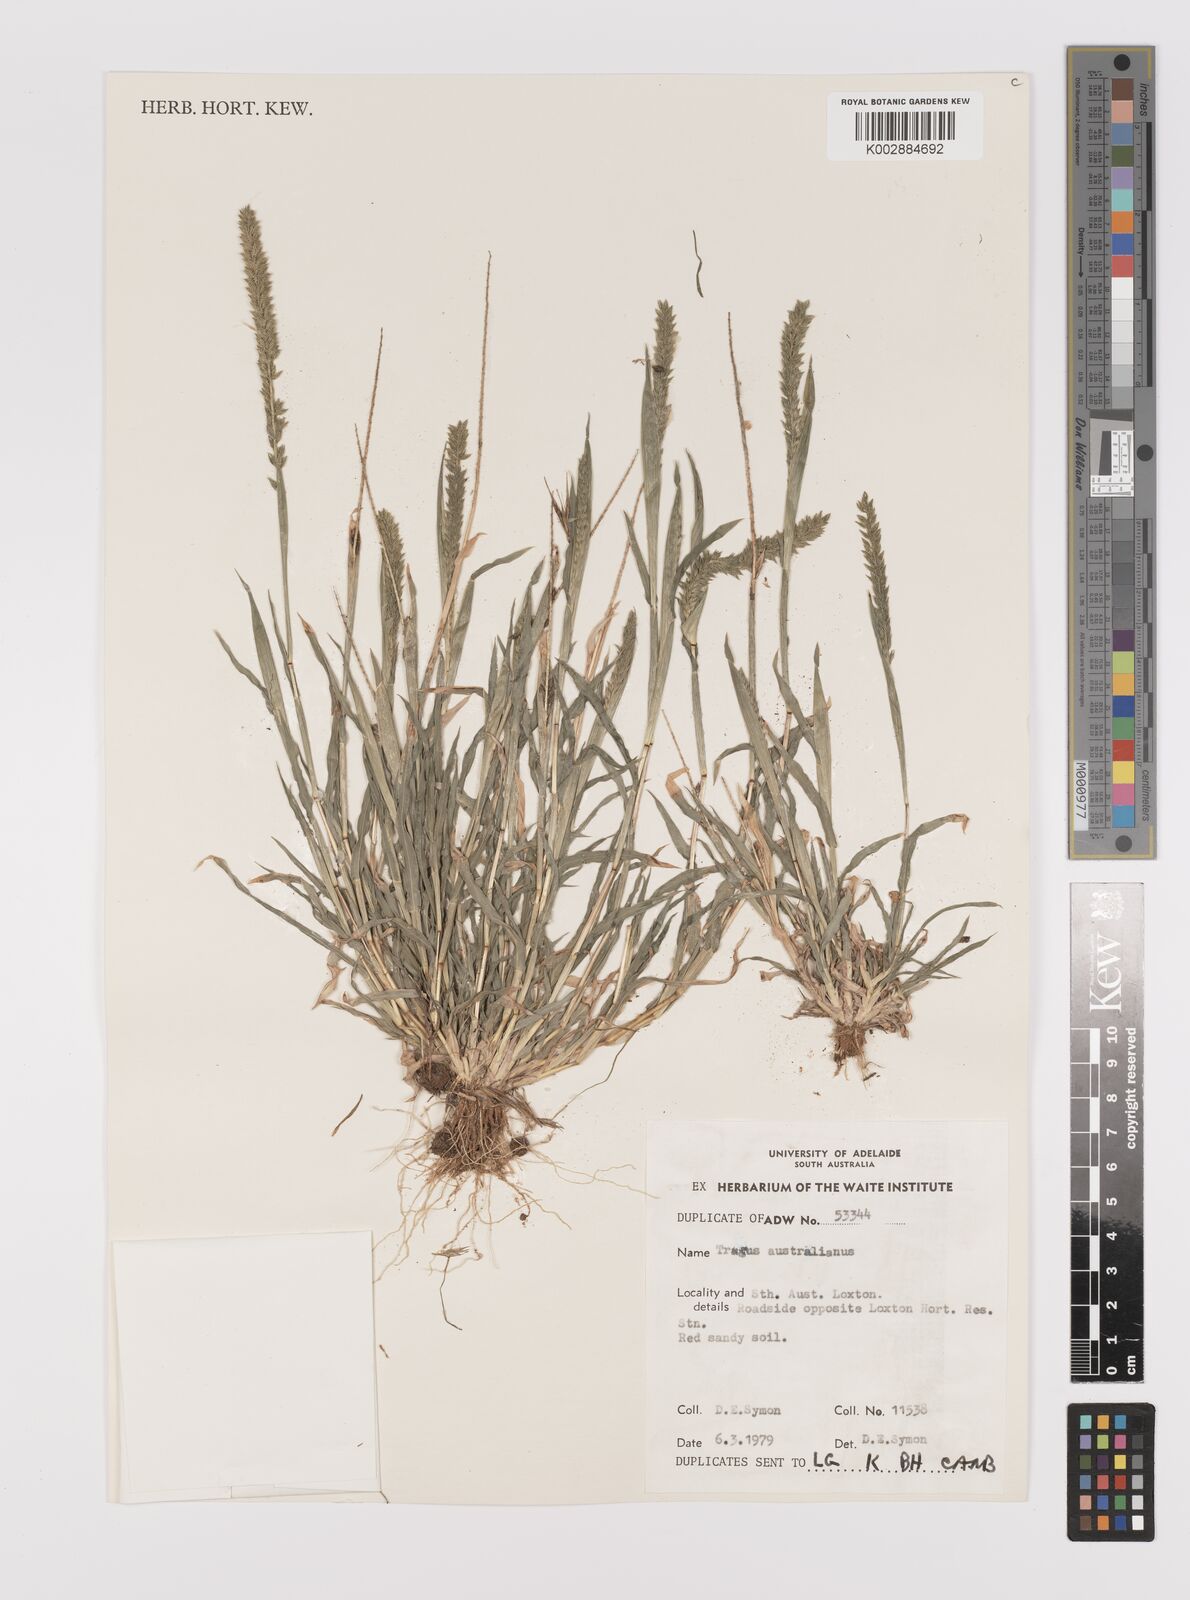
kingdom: Plantae
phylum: Tracheophyta
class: Liliopsida
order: Poales
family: Poaceae
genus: Tragus
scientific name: Tragus australianus
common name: Australian bur-grass
